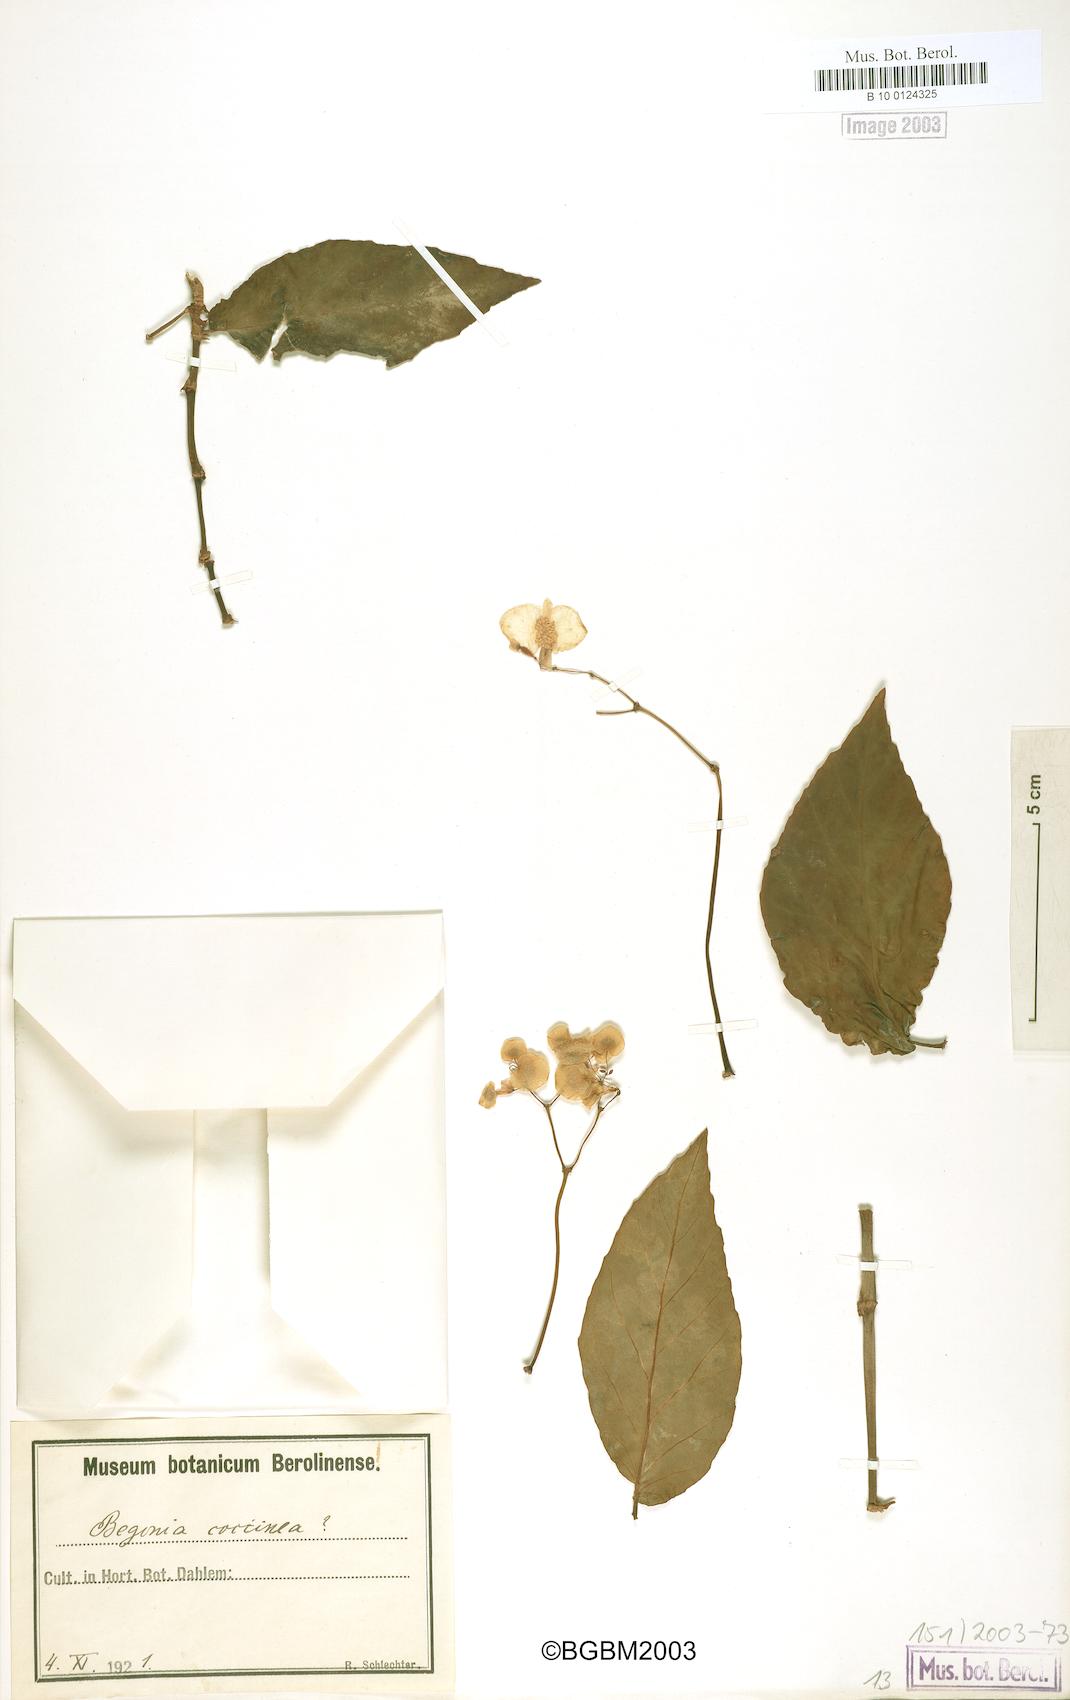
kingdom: Plantae
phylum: Tracheophyta
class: Magnoliopsida
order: Cucurbitales
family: Begoniaceae
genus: Begonia
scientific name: Begonia coccinea
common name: Angel-wing begonia
